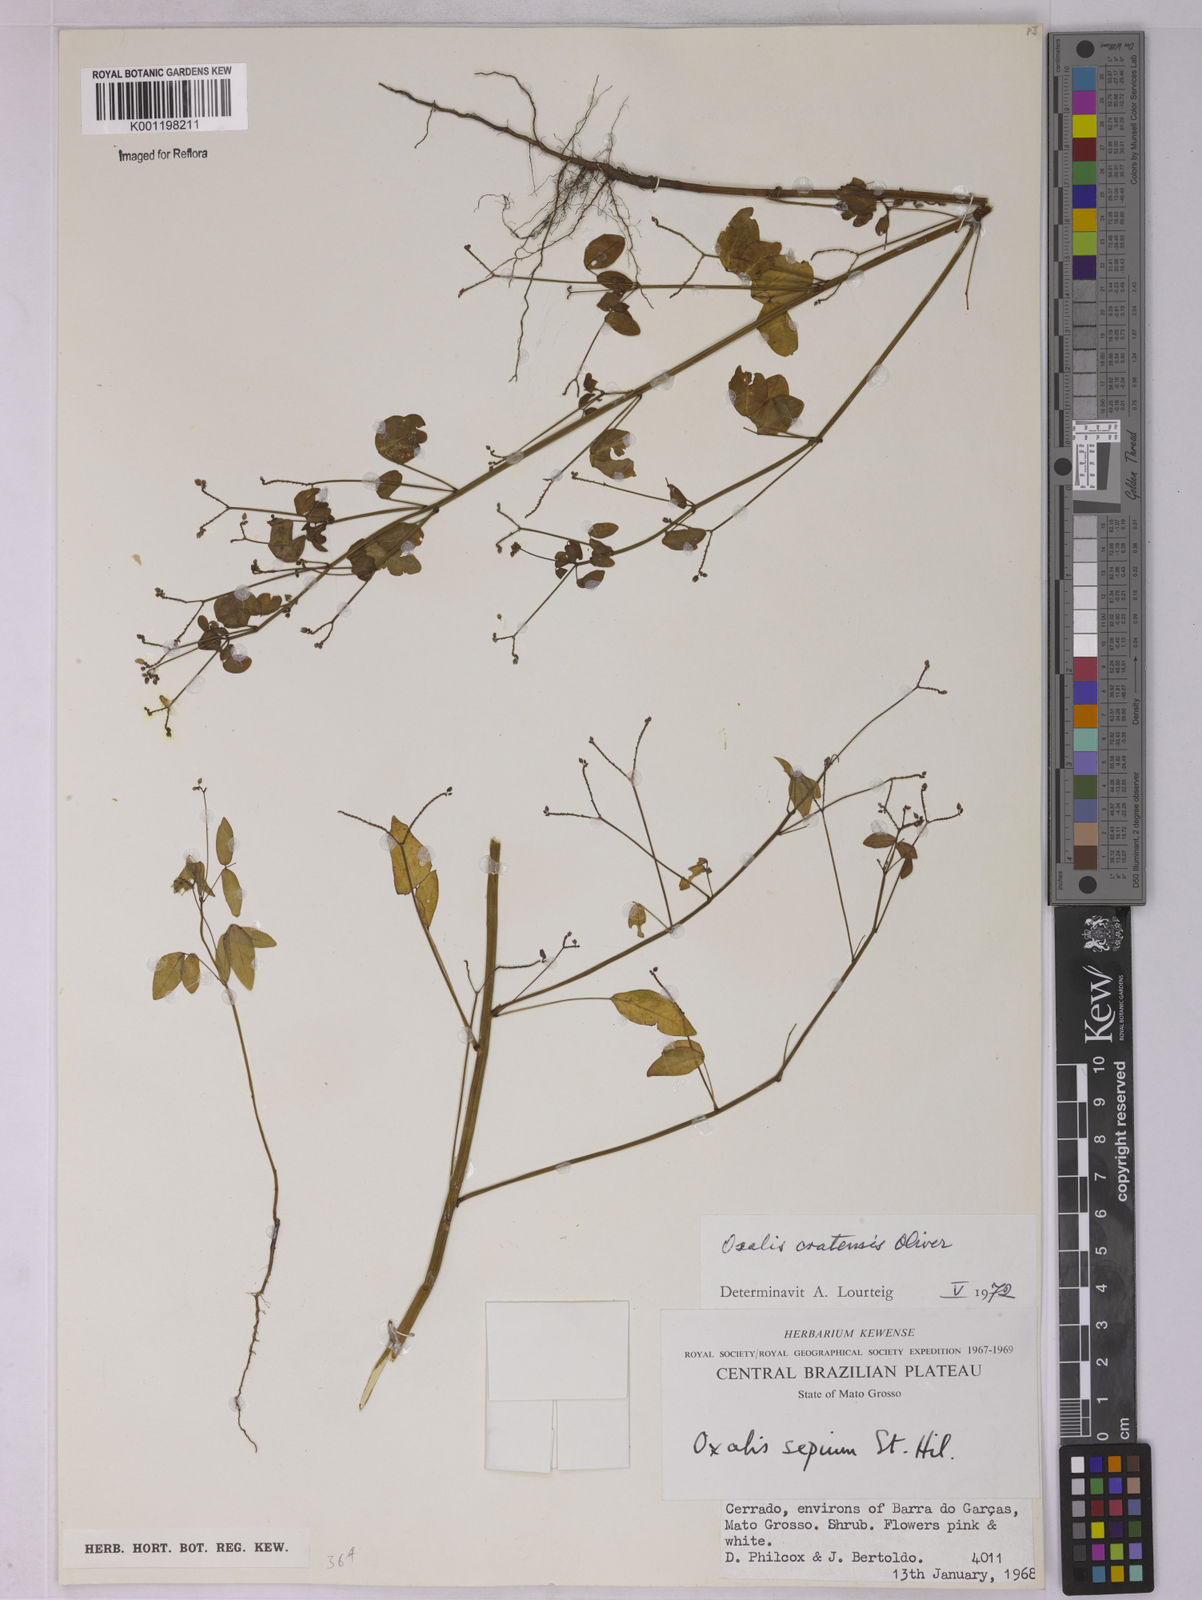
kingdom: Plantae
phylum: Tracheophyta
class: Magnoliopsida
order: Oxalidales
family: Oxalidaceae
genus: Oxalis
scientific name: Oxalis cratensis
